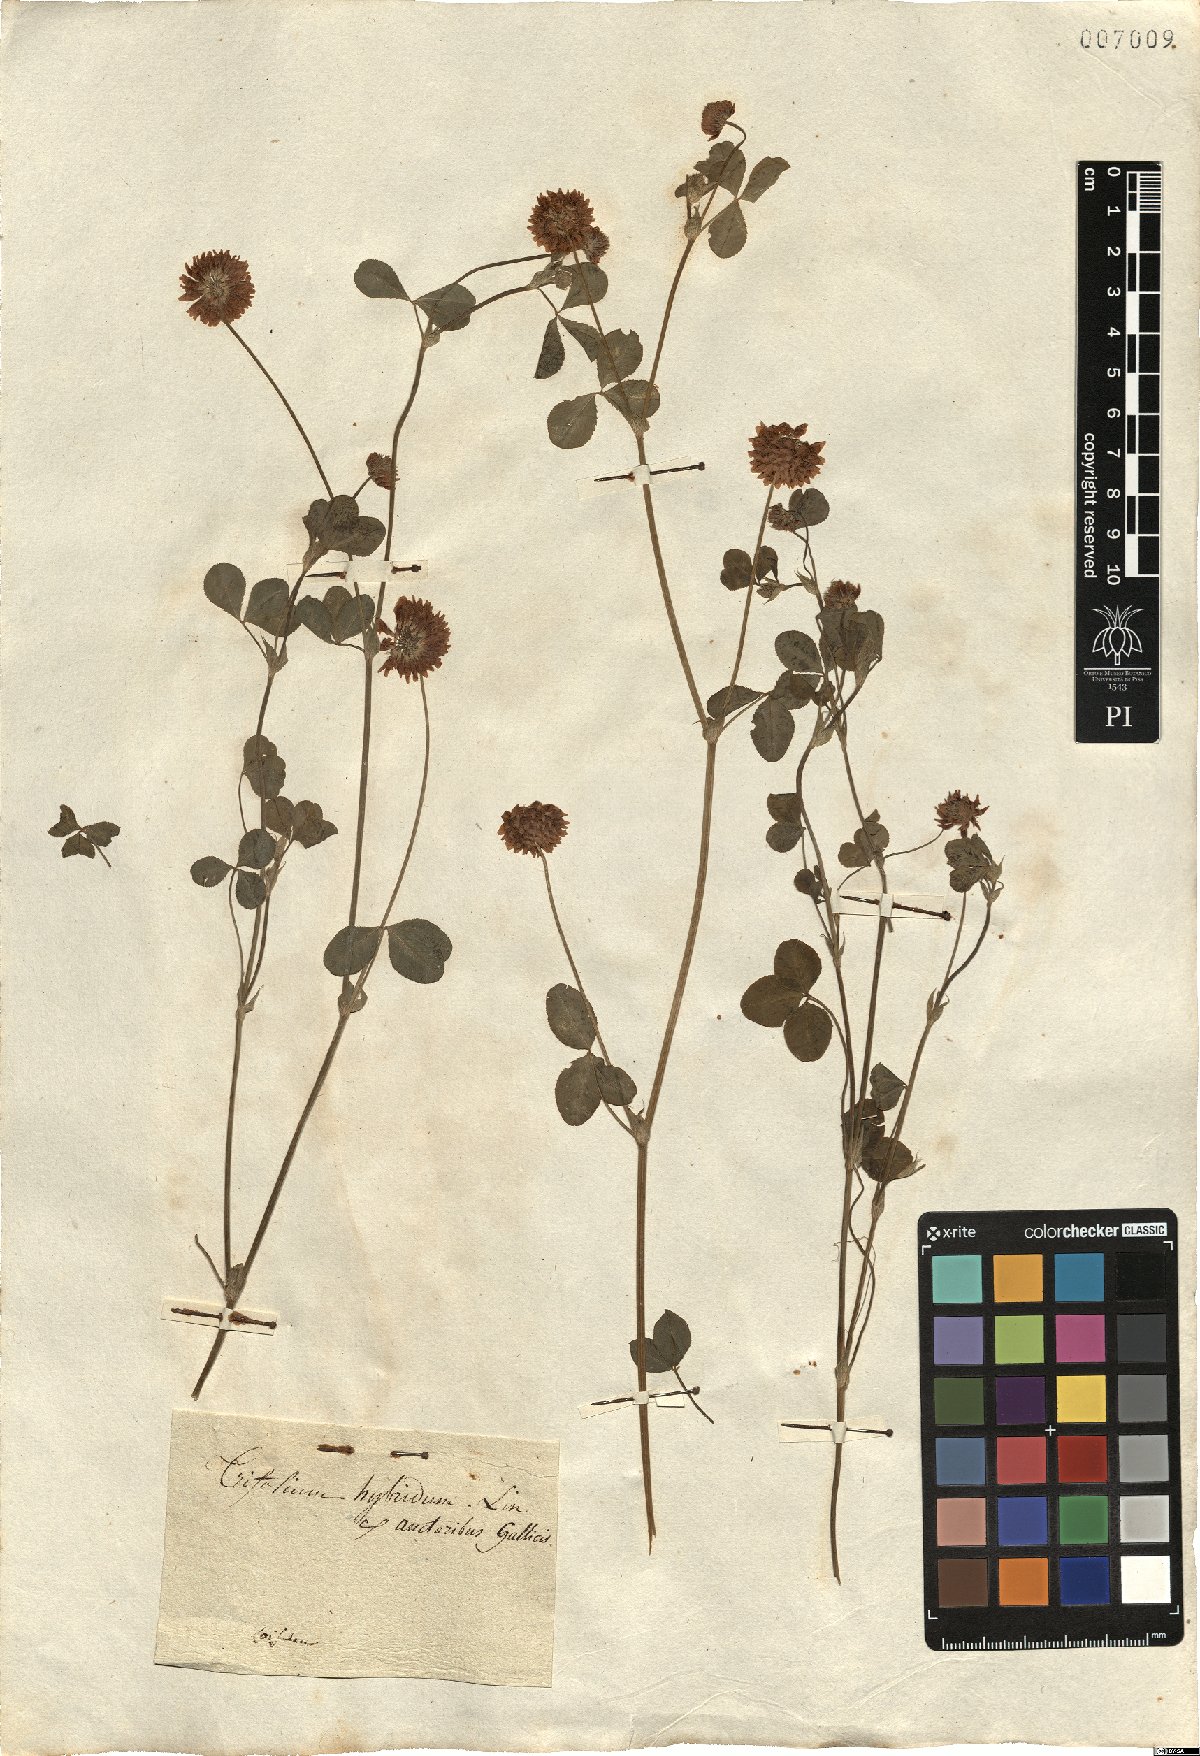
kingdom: Plantae
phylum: Tracheophyta
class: Magnoliopsida
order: Fabales
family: Fabaceae
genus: Trifolium
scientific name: Trifolium hybridum
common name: Alsike clover
